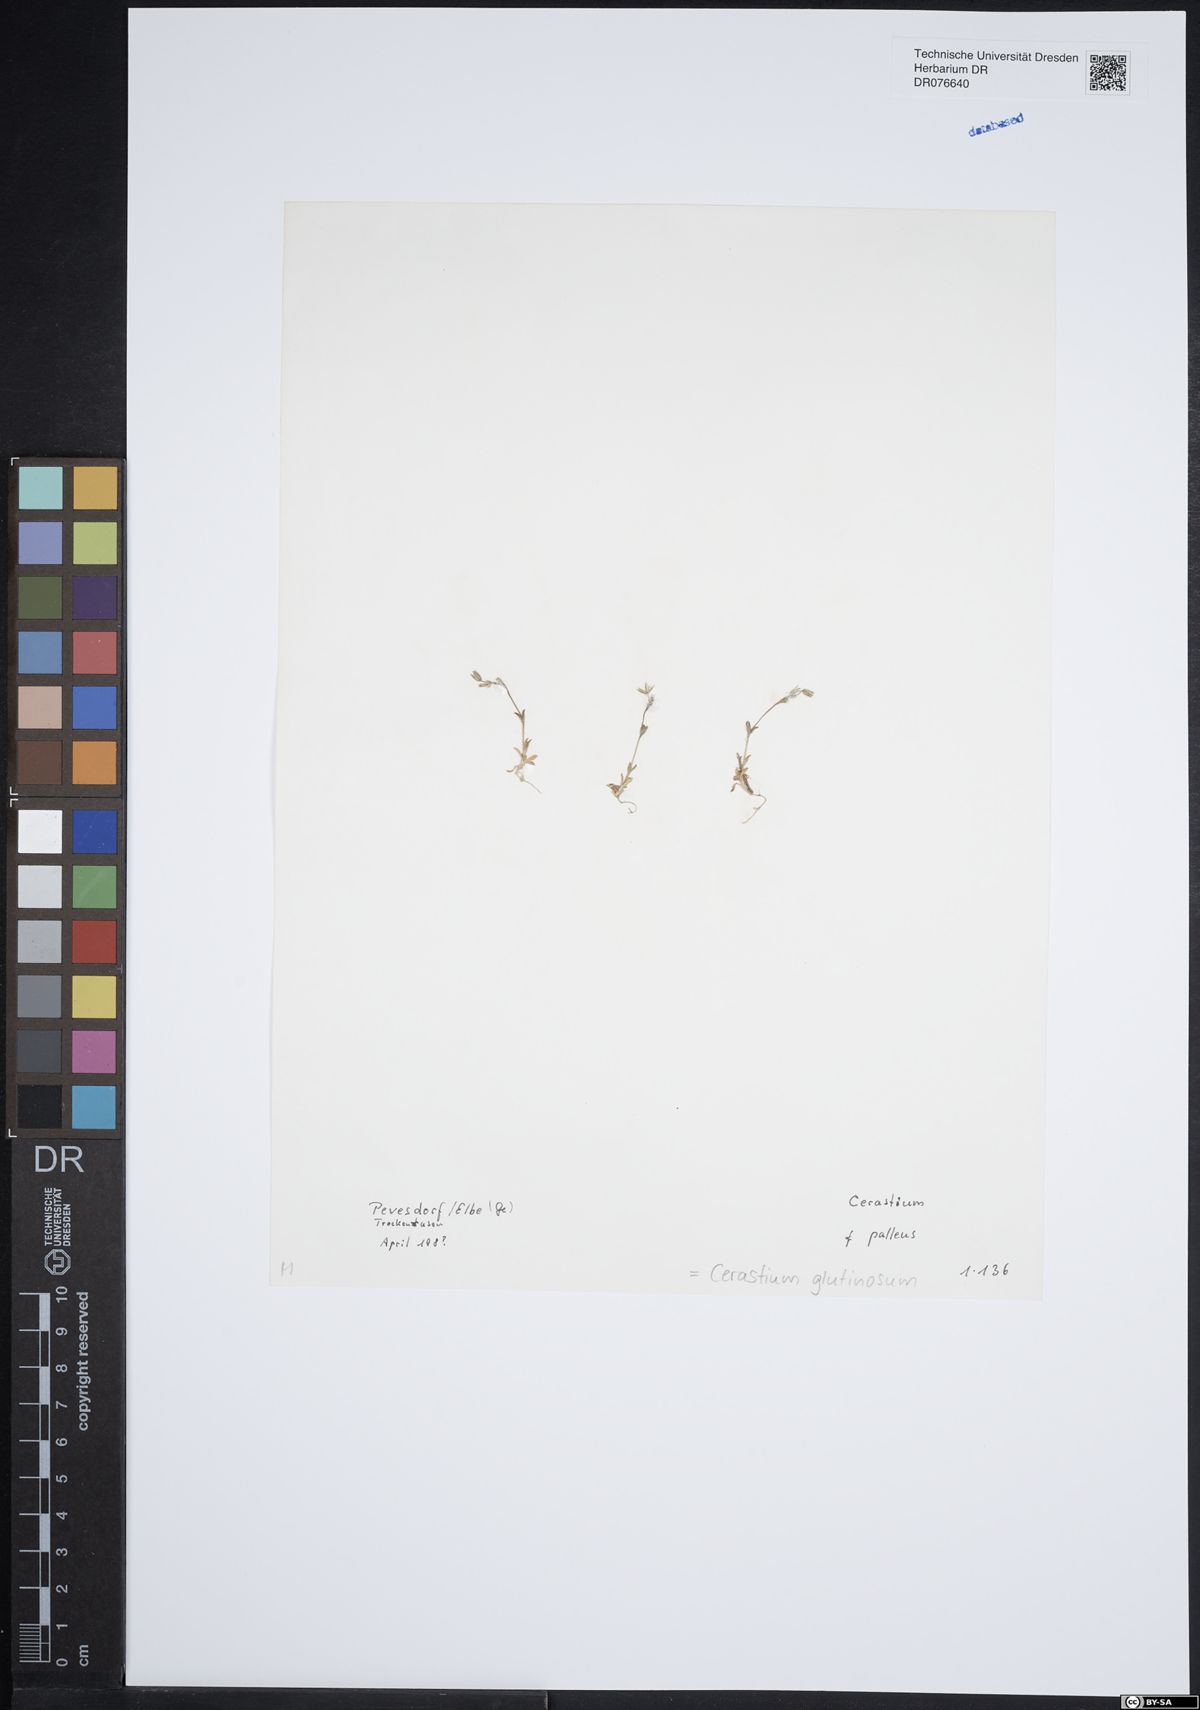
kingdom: Plantae
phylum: Tracheophyta
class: Magnoliopsida
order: Caryophyllales
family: Caryophyllaceae
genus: Cerastium
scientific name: Cerastium glutinosum
